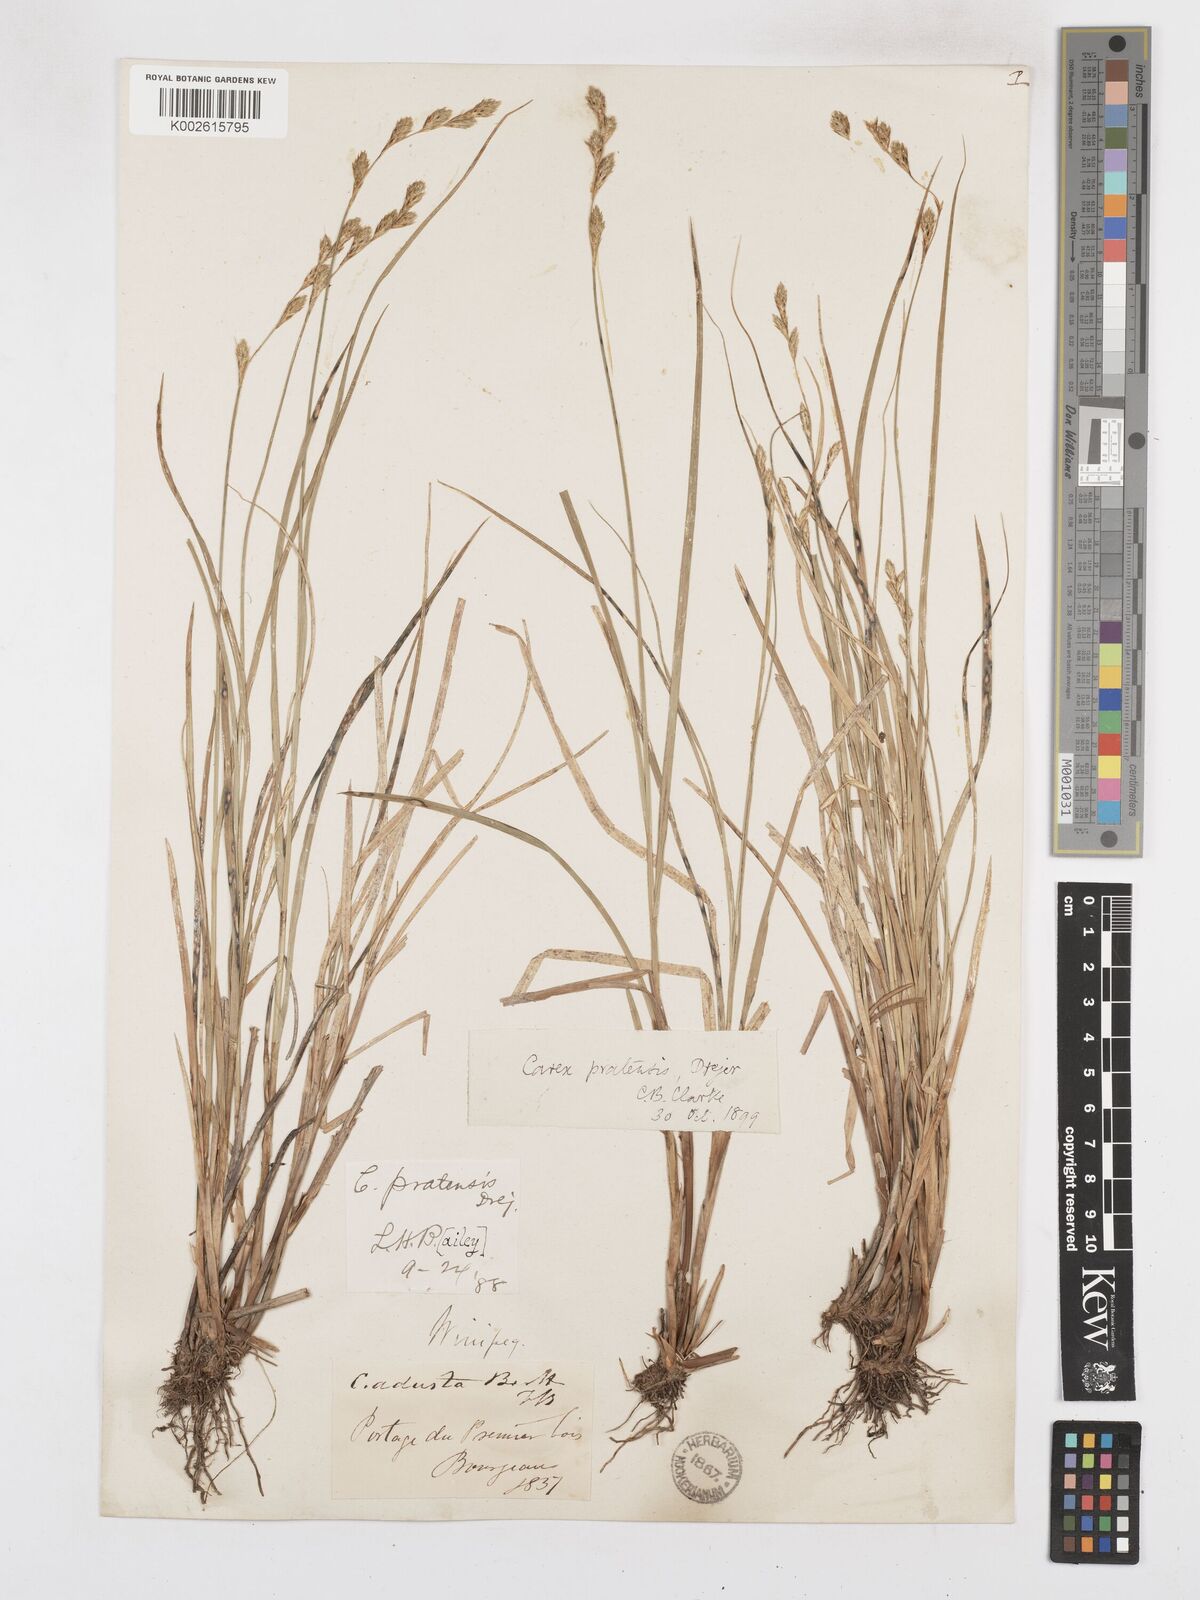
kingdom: Plantae
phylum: Tracheophyta
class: Liliopsida
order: Poales
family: Cyperaceae
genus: Carex
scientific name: Carex praticola
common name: Large-fruited oval sedge
